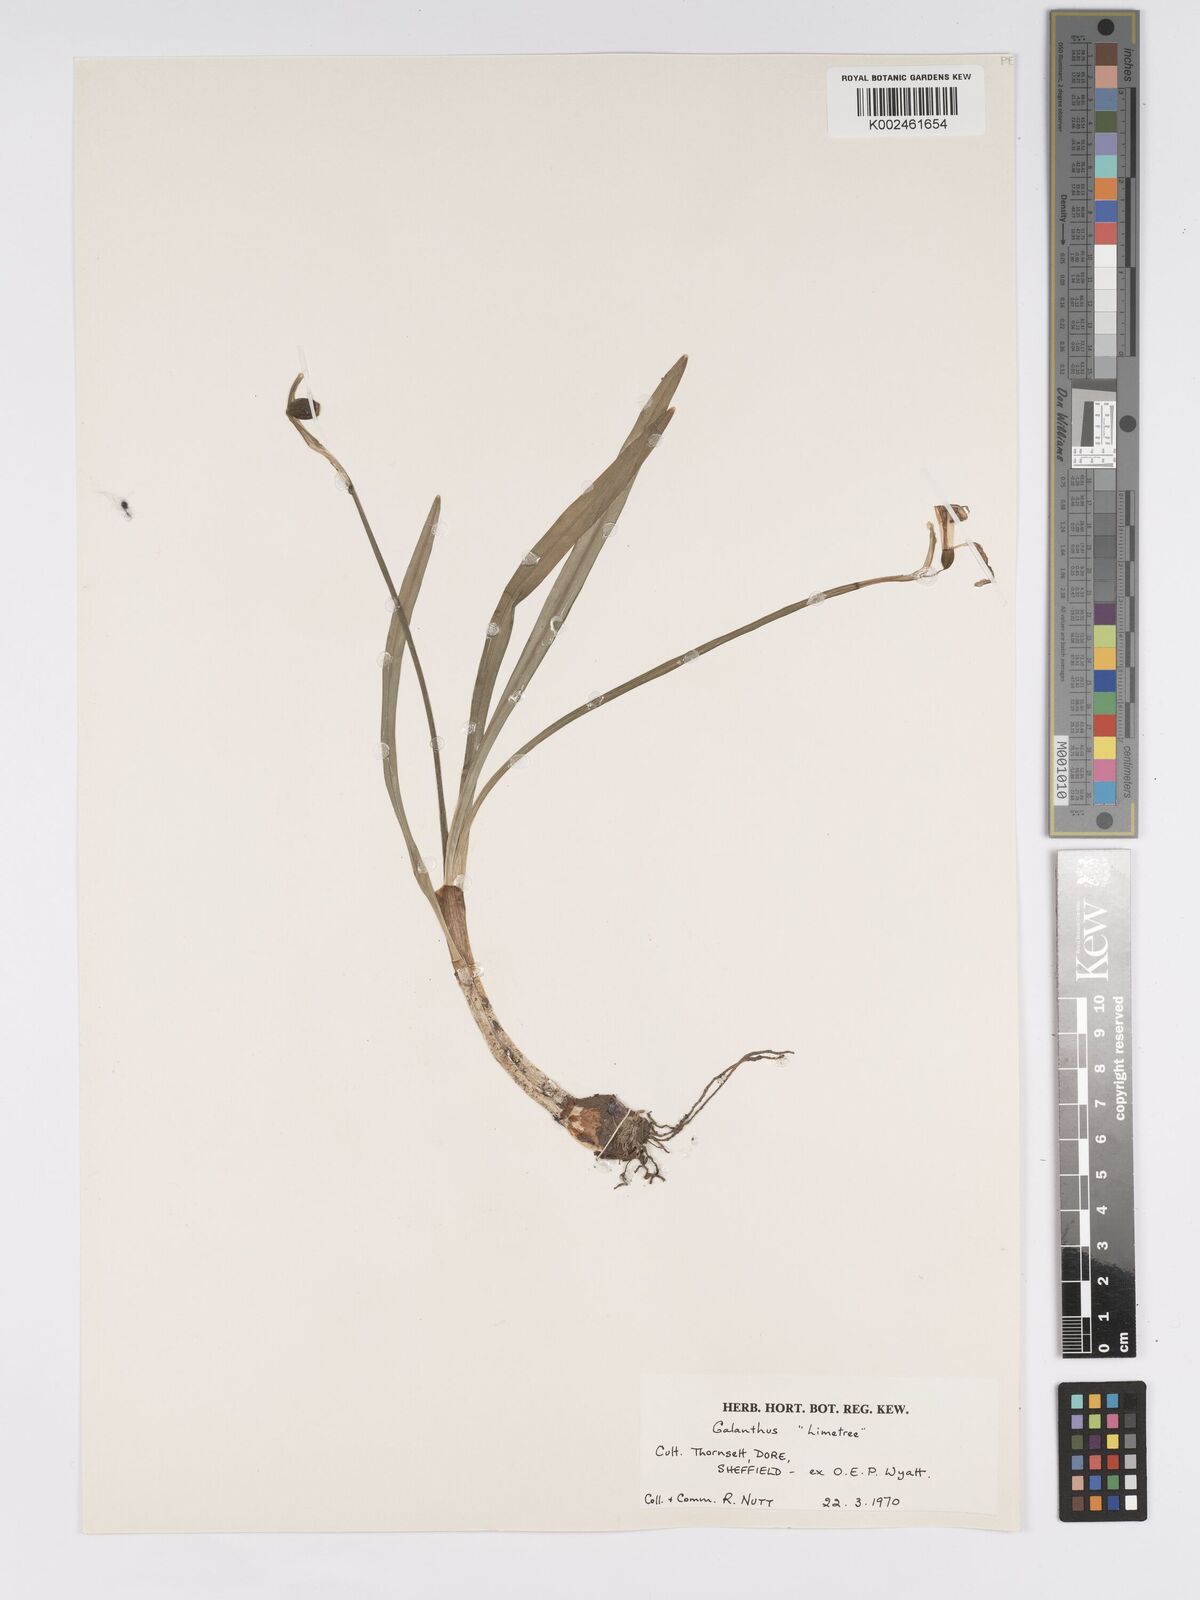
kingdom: Plantae
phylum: Tracheophyta
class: Liliopsida
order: Asparagales
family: Amaryllidaceae
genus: Galanthus
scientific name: Galanthus nivalis
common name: Snowdrop
